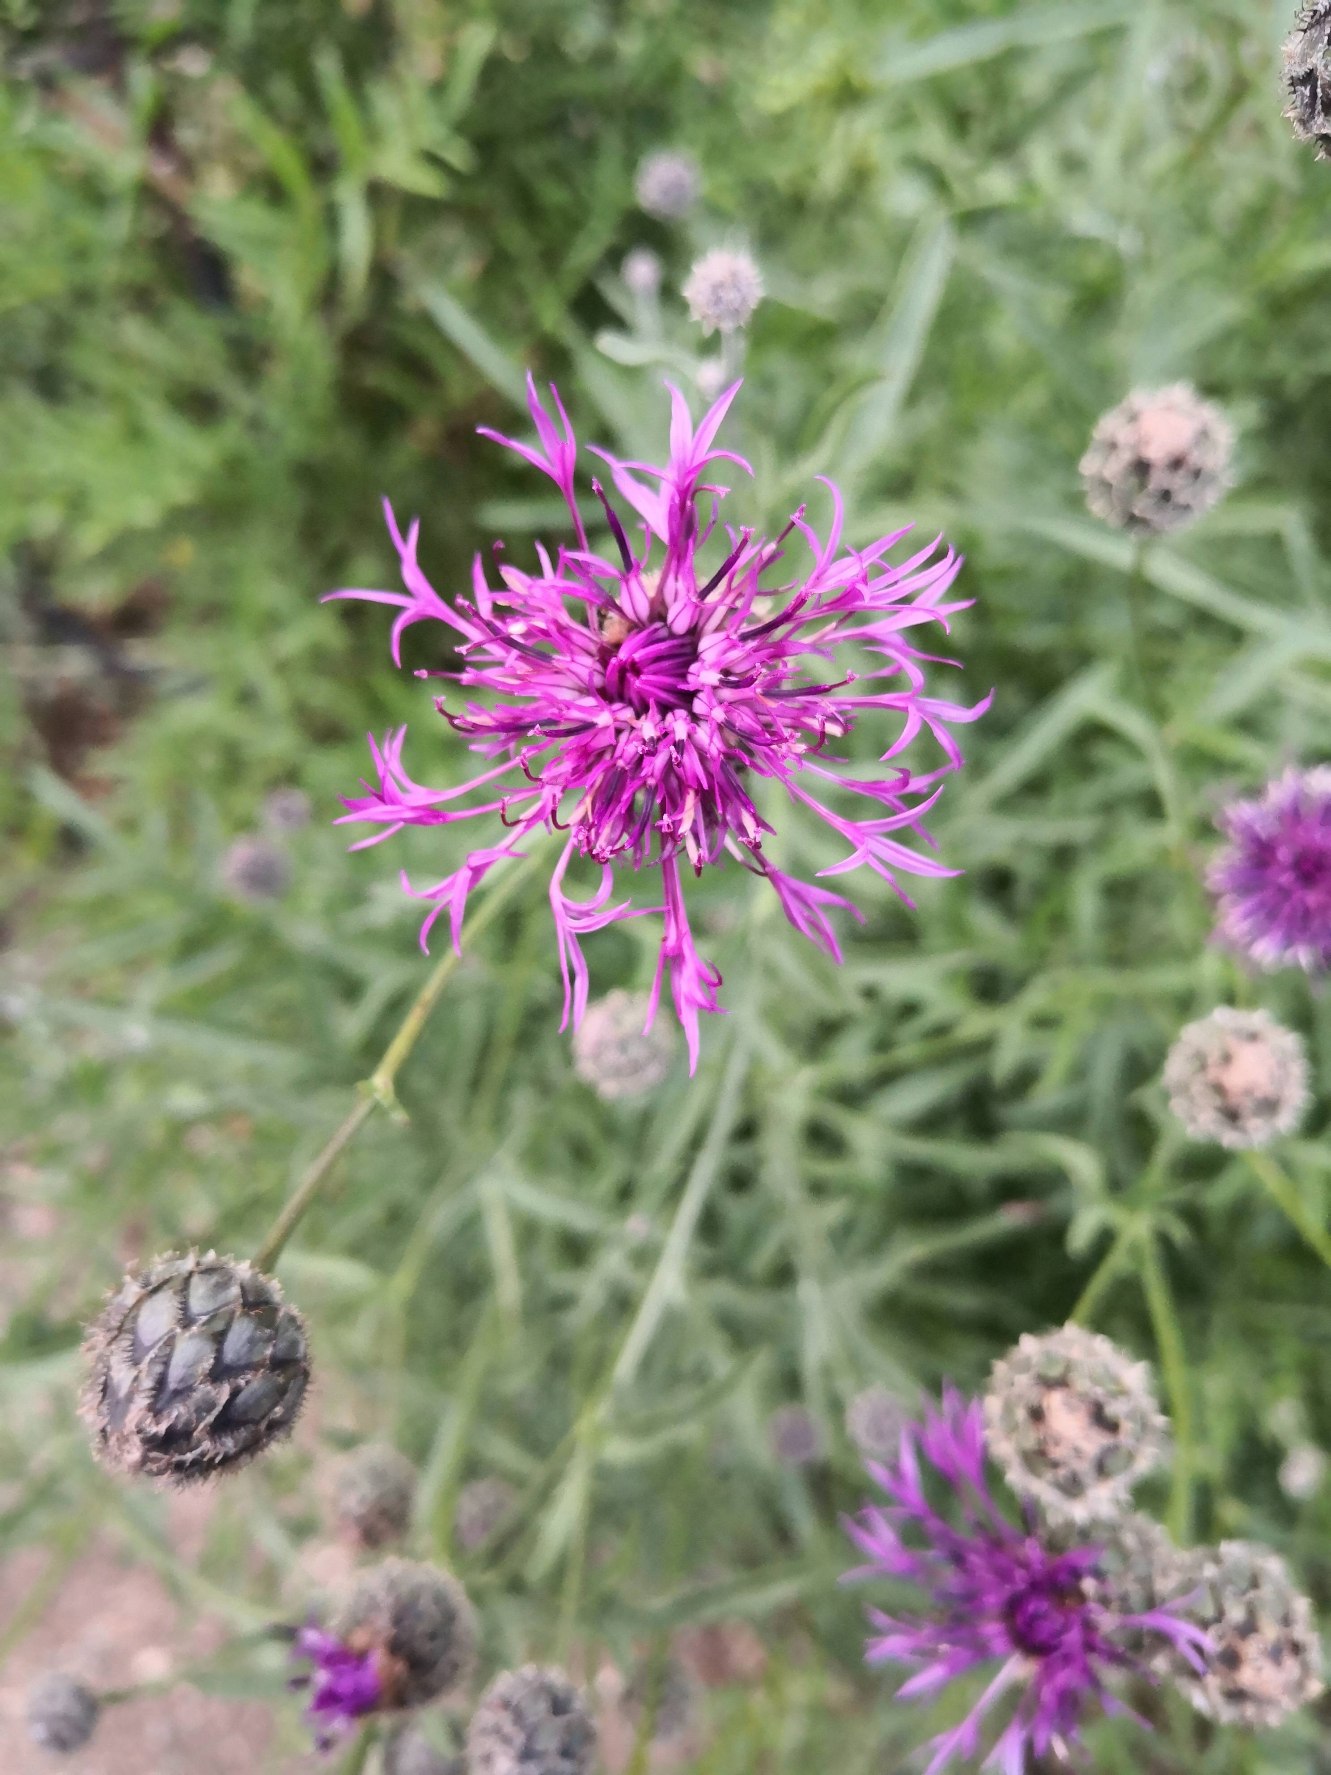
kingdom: Plantae
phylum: Tracheophyta
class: Magnoliopsida
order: Asterales
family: Asteraceae
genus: Centaurea
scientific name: Centaurea scabiosa
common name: Stor knopurt
